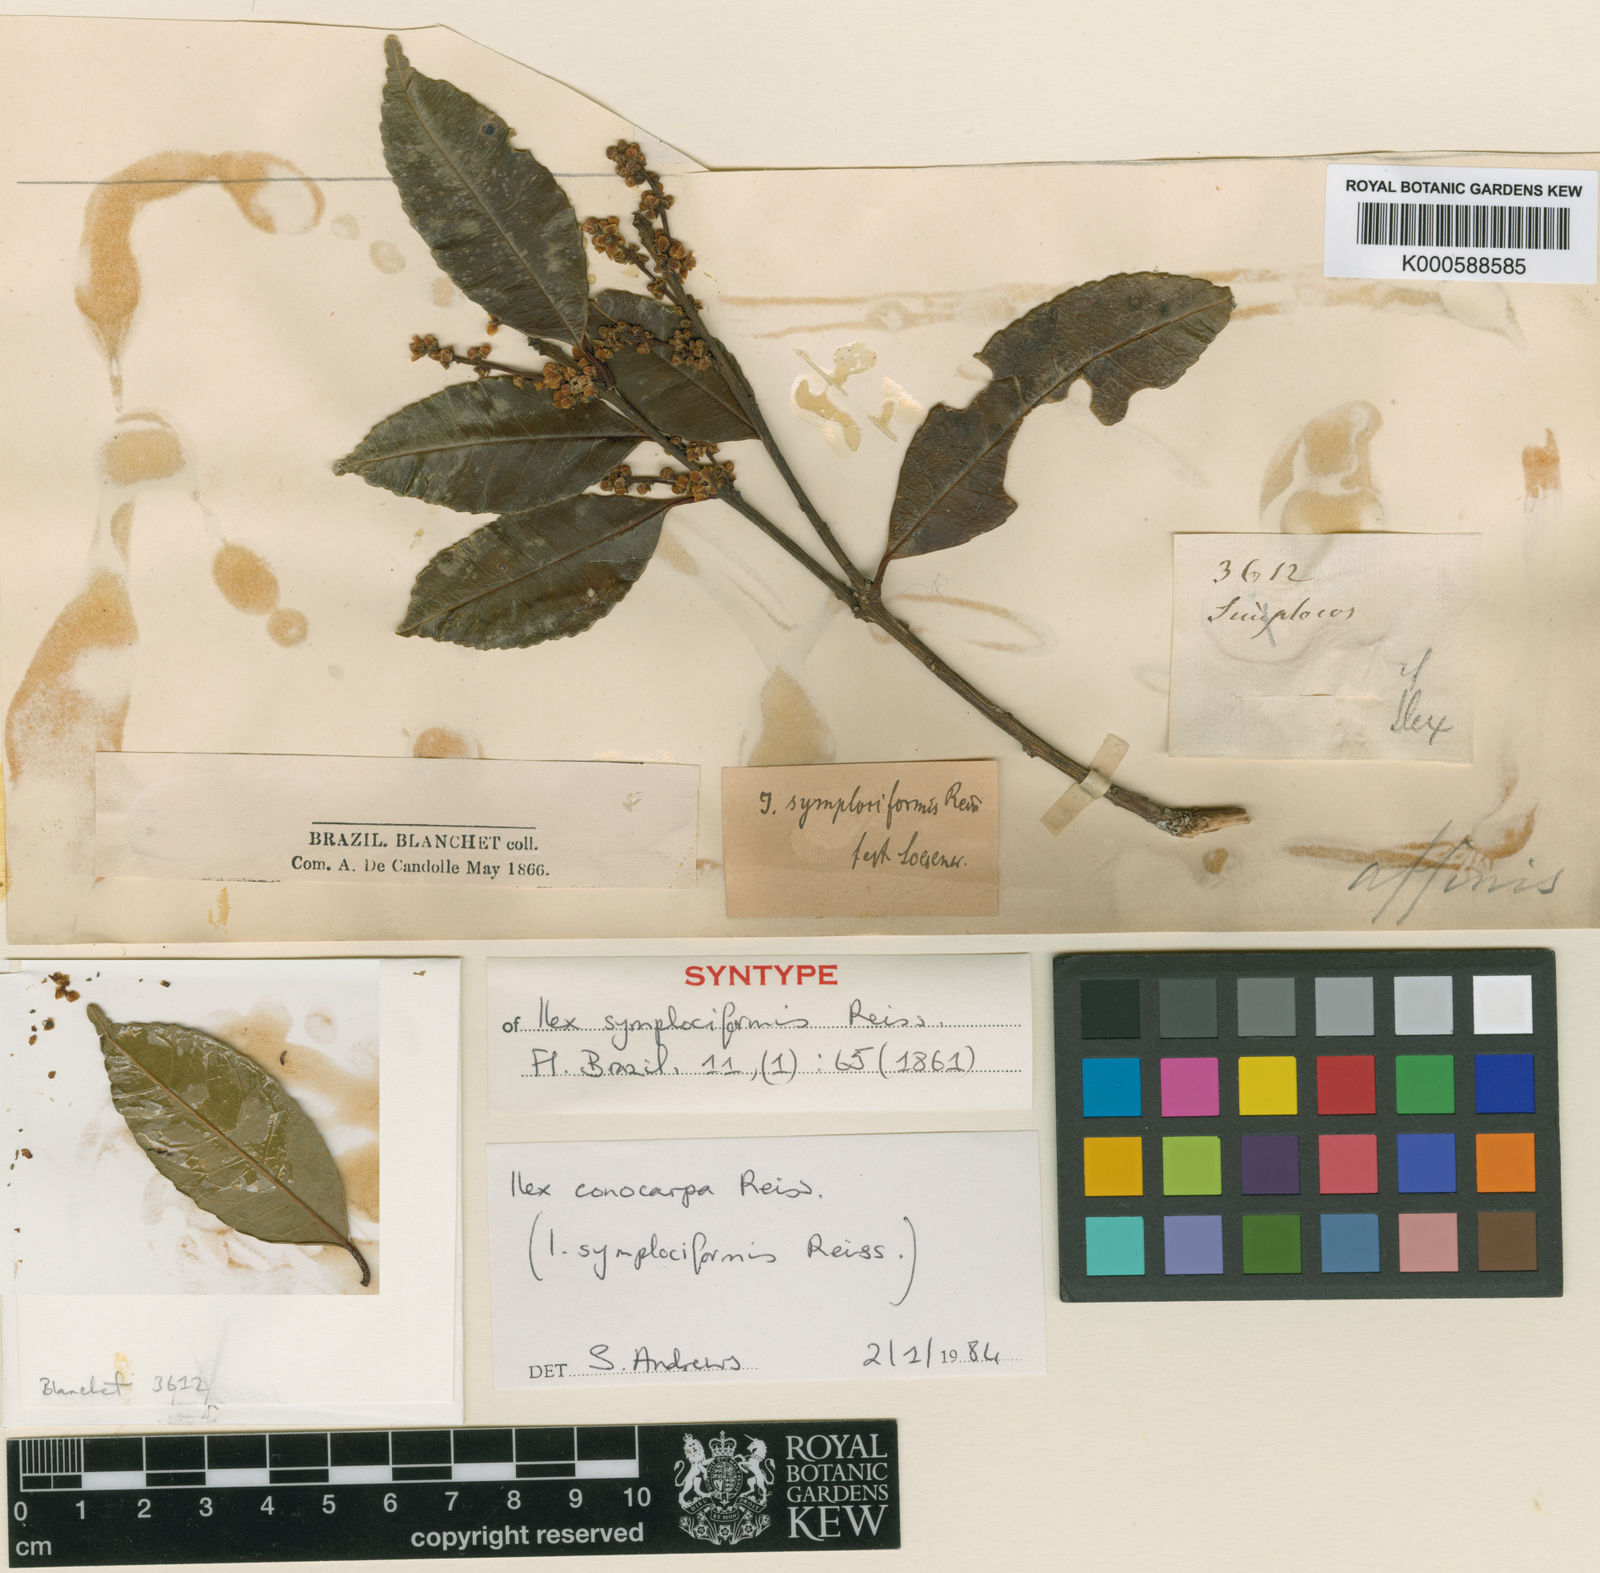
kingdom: Plantae
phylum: Tracheophyta
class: Magnoliopsida
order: Aquifoliales
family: Aquifoliaceae
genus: Ilex
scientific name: Ilex conocarpa
